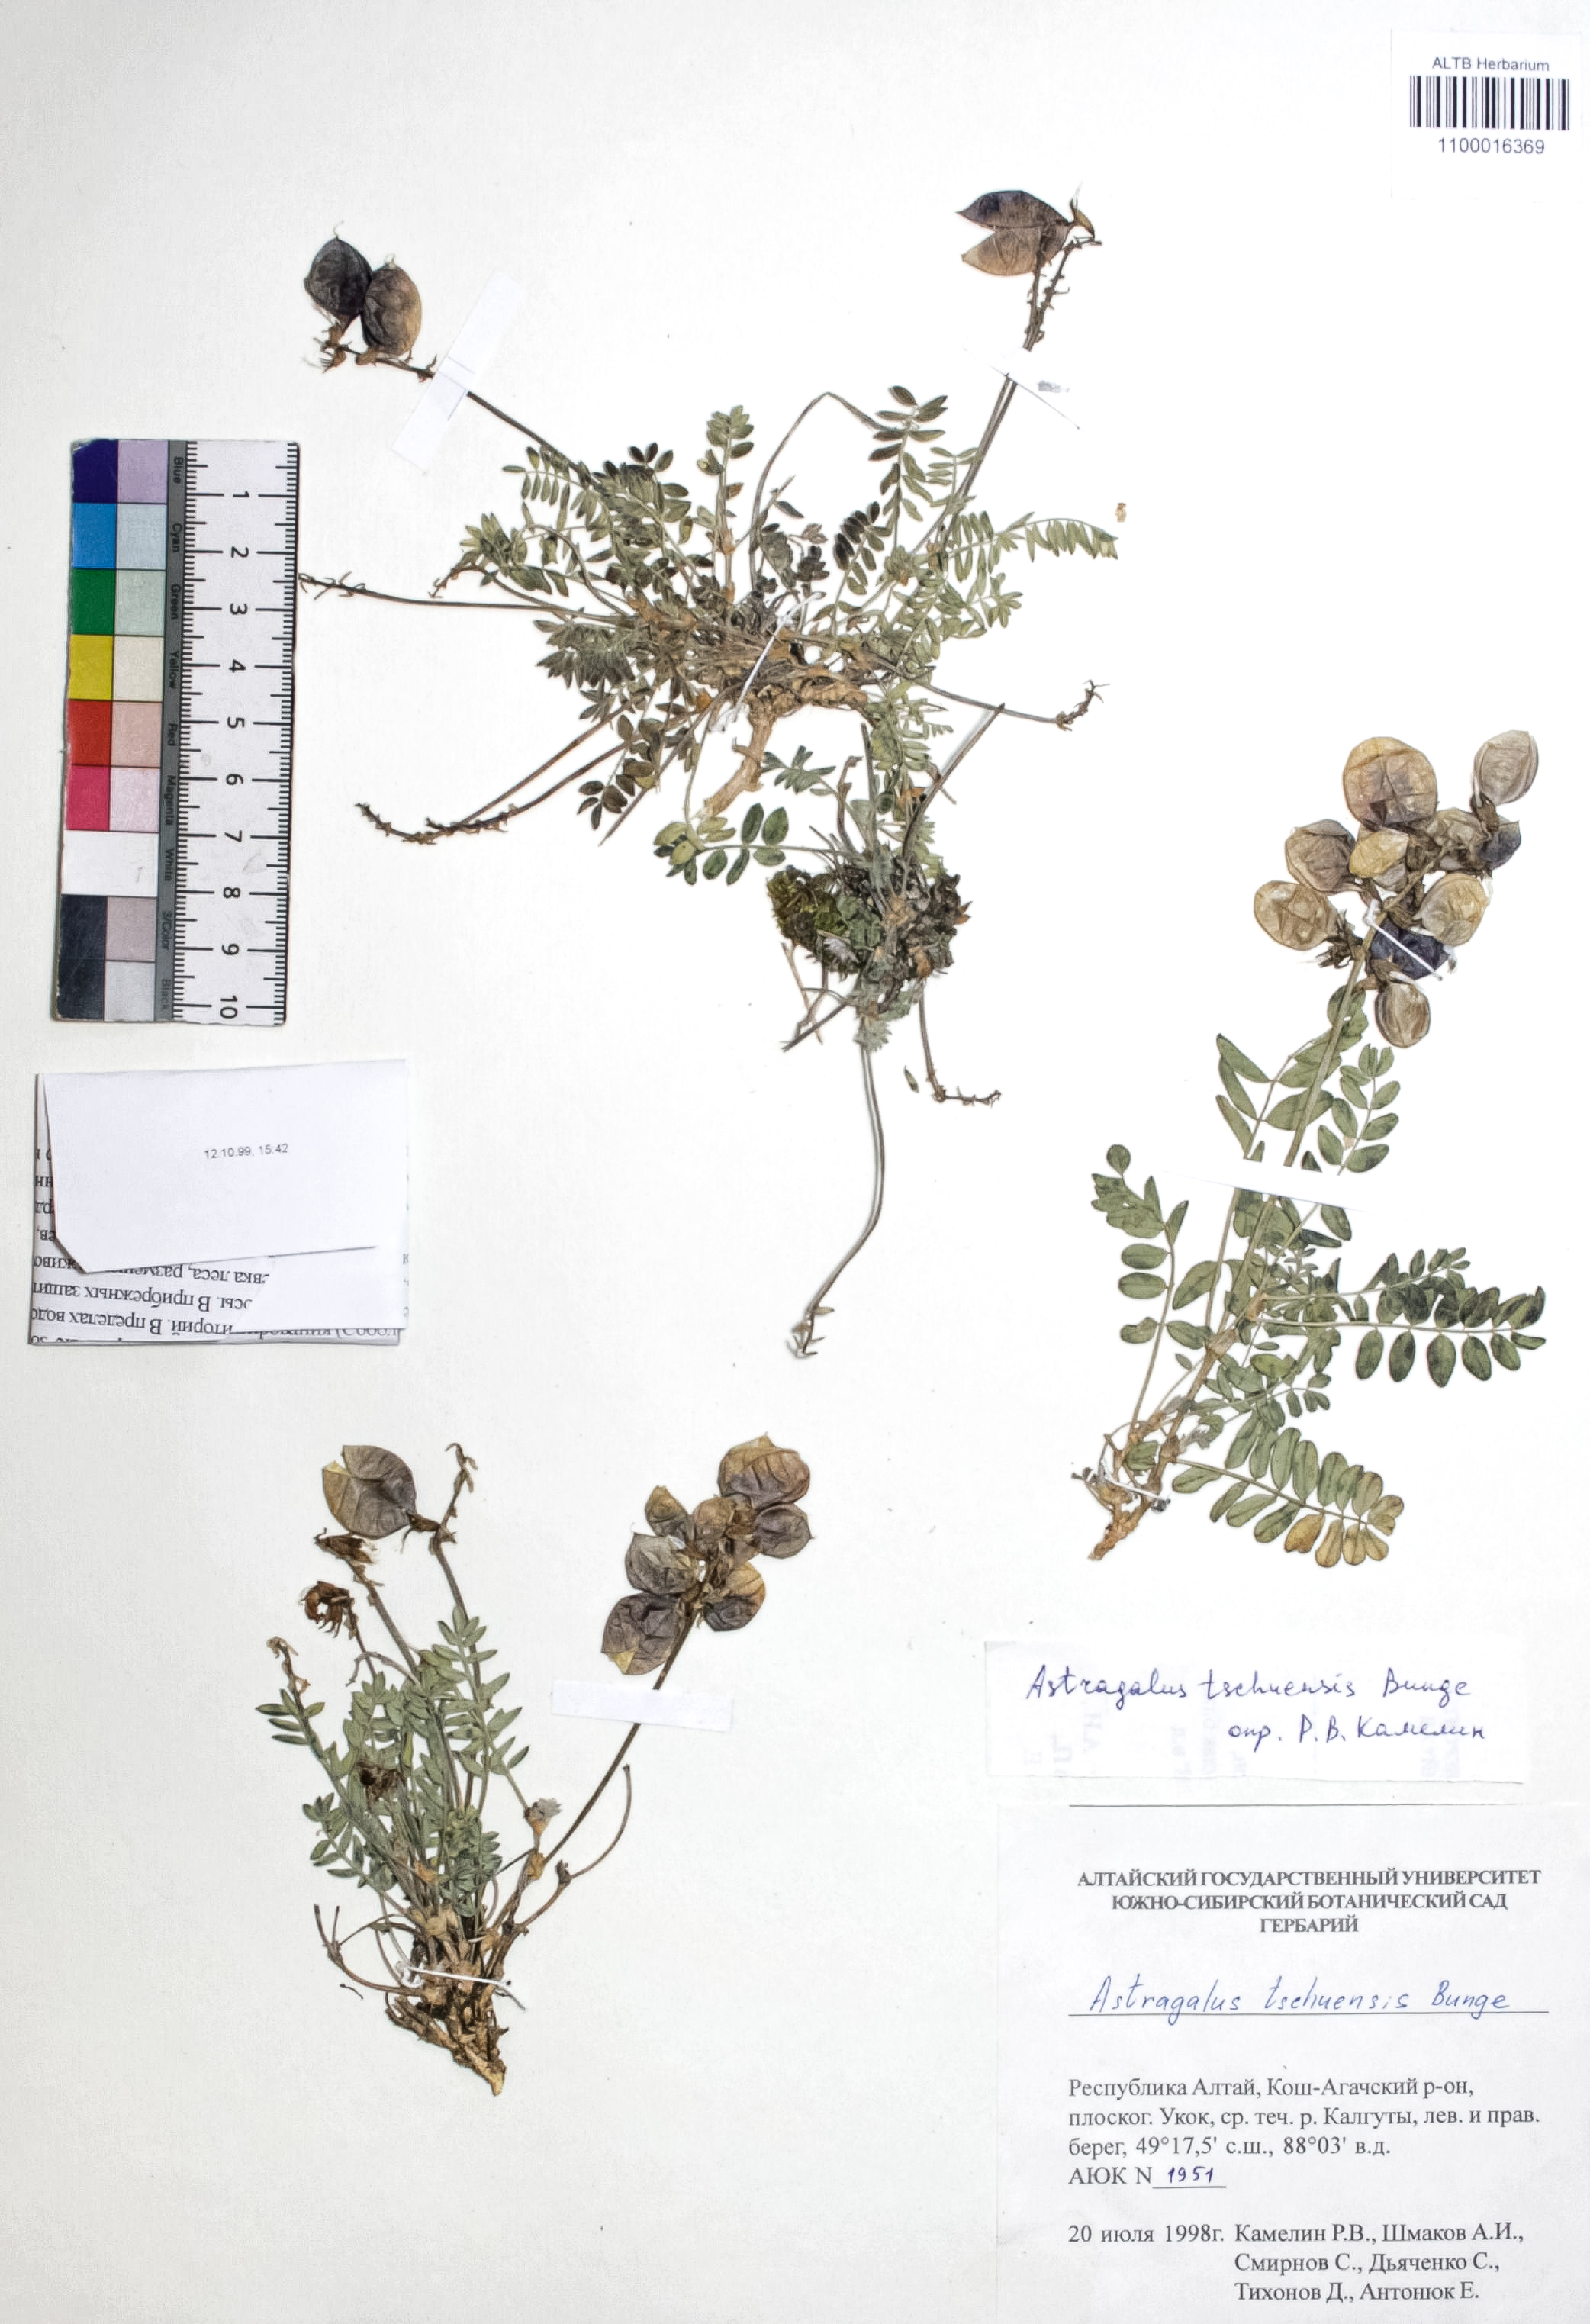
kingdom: Plantae
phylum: Tracheophyta
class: Magnoliopsida
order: Fabales
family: Fabaceae
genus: Astragalus
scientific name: Astragalus tschujensis
